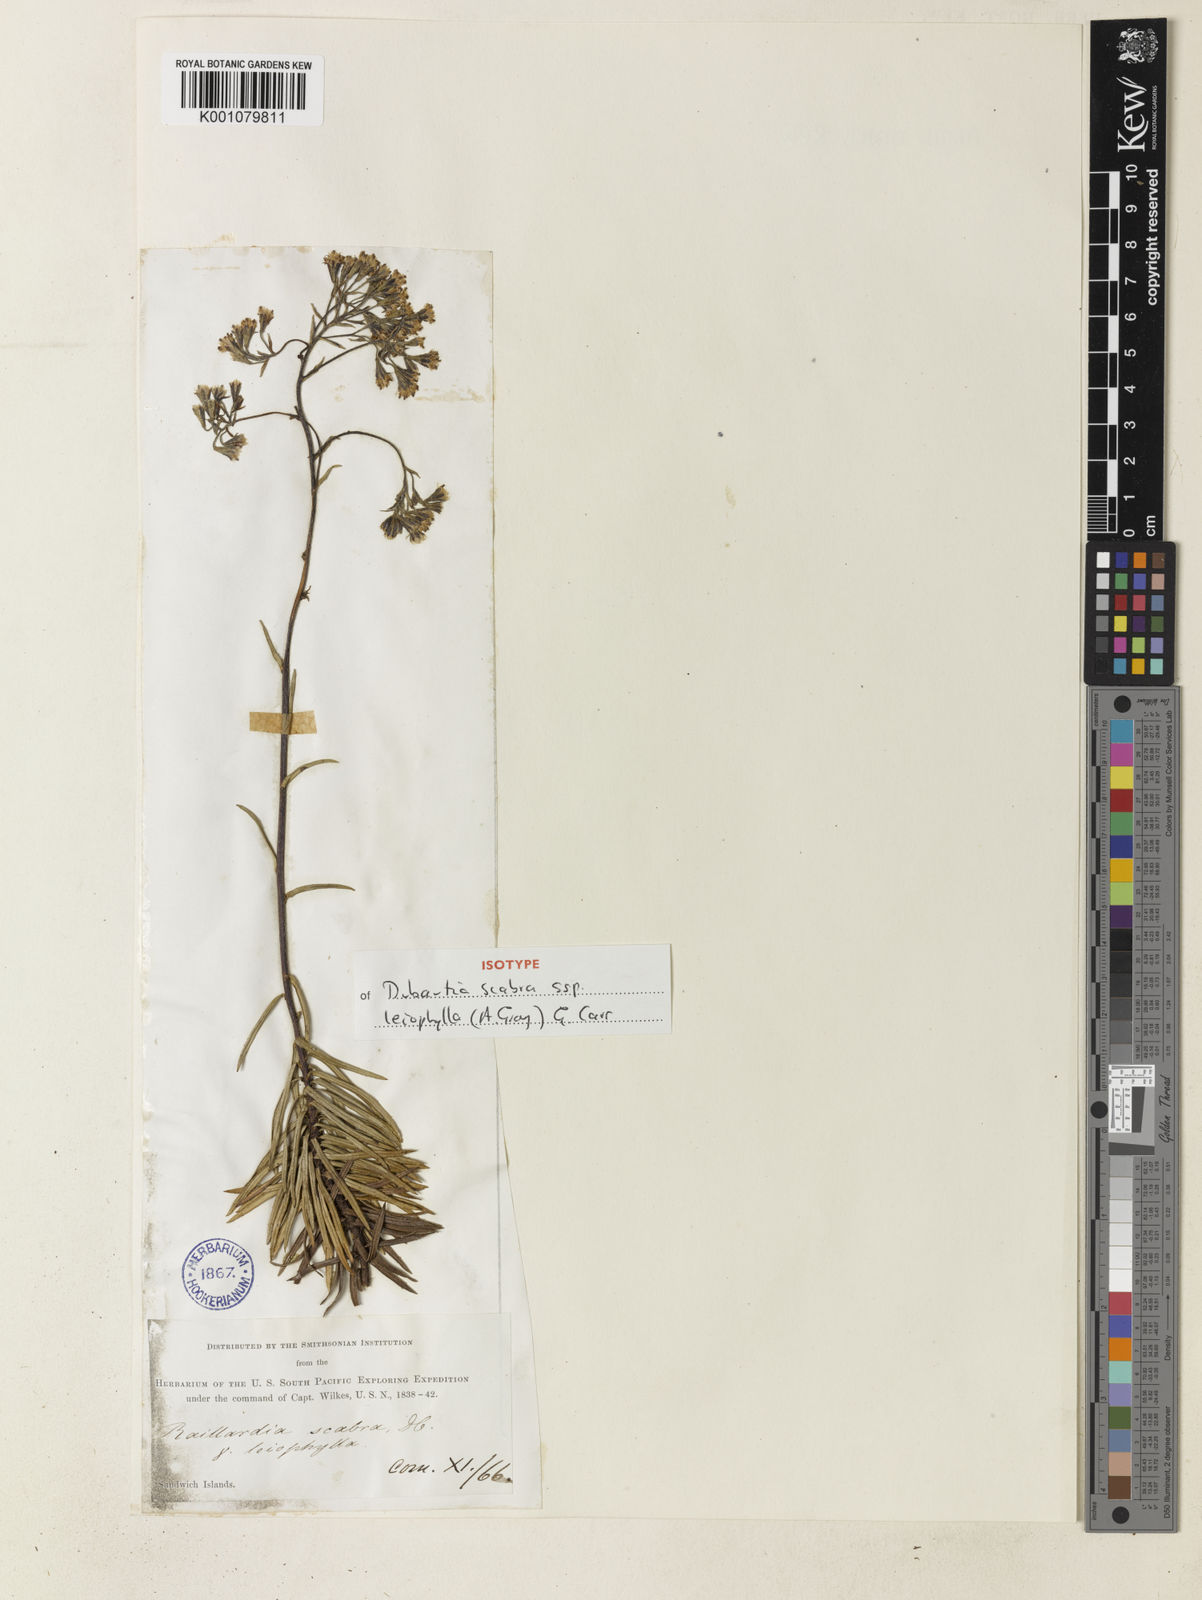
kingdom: Plantae
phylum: Tracheophyta
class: Magnoliopsida
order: Asterales
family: Asteraceae
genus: Dubautia
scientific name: Dubautia scabra
